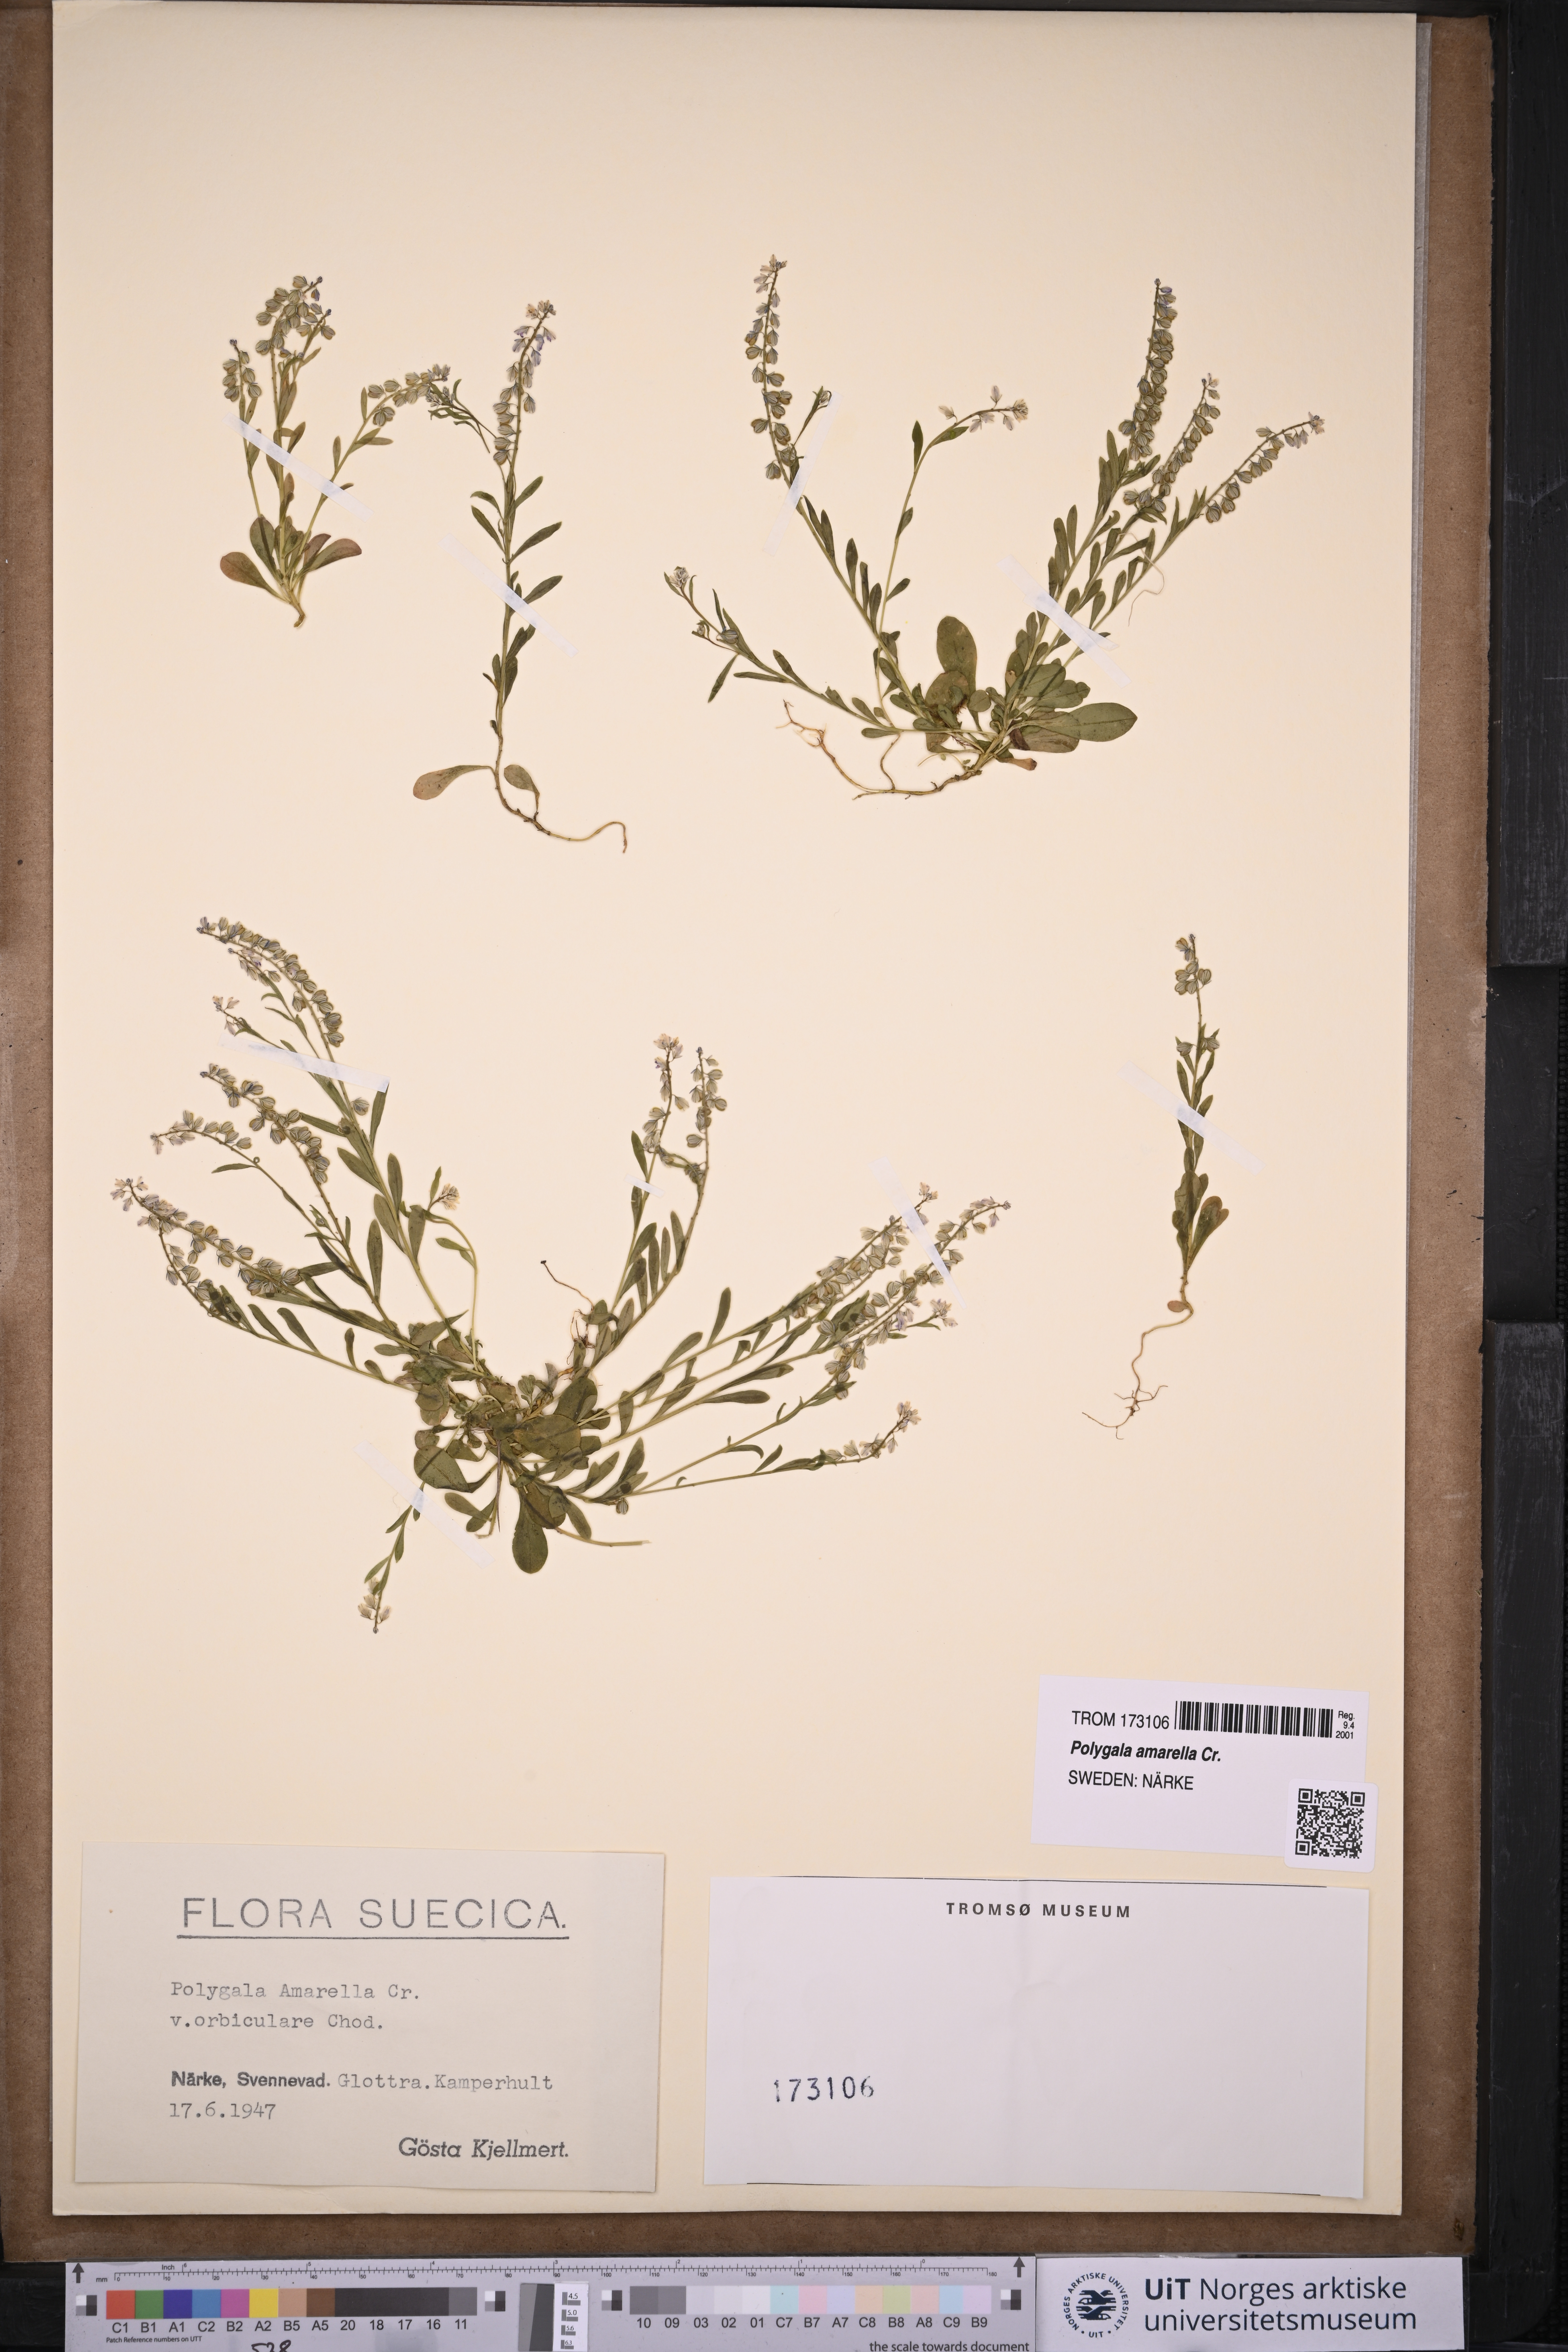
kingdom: Plantae
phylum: Tracheophyta
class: Magnoliopsida
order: Fabales
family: Polygalaceae
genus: Polygala
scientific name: Polygala amarella
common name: Dwarf milkwort
